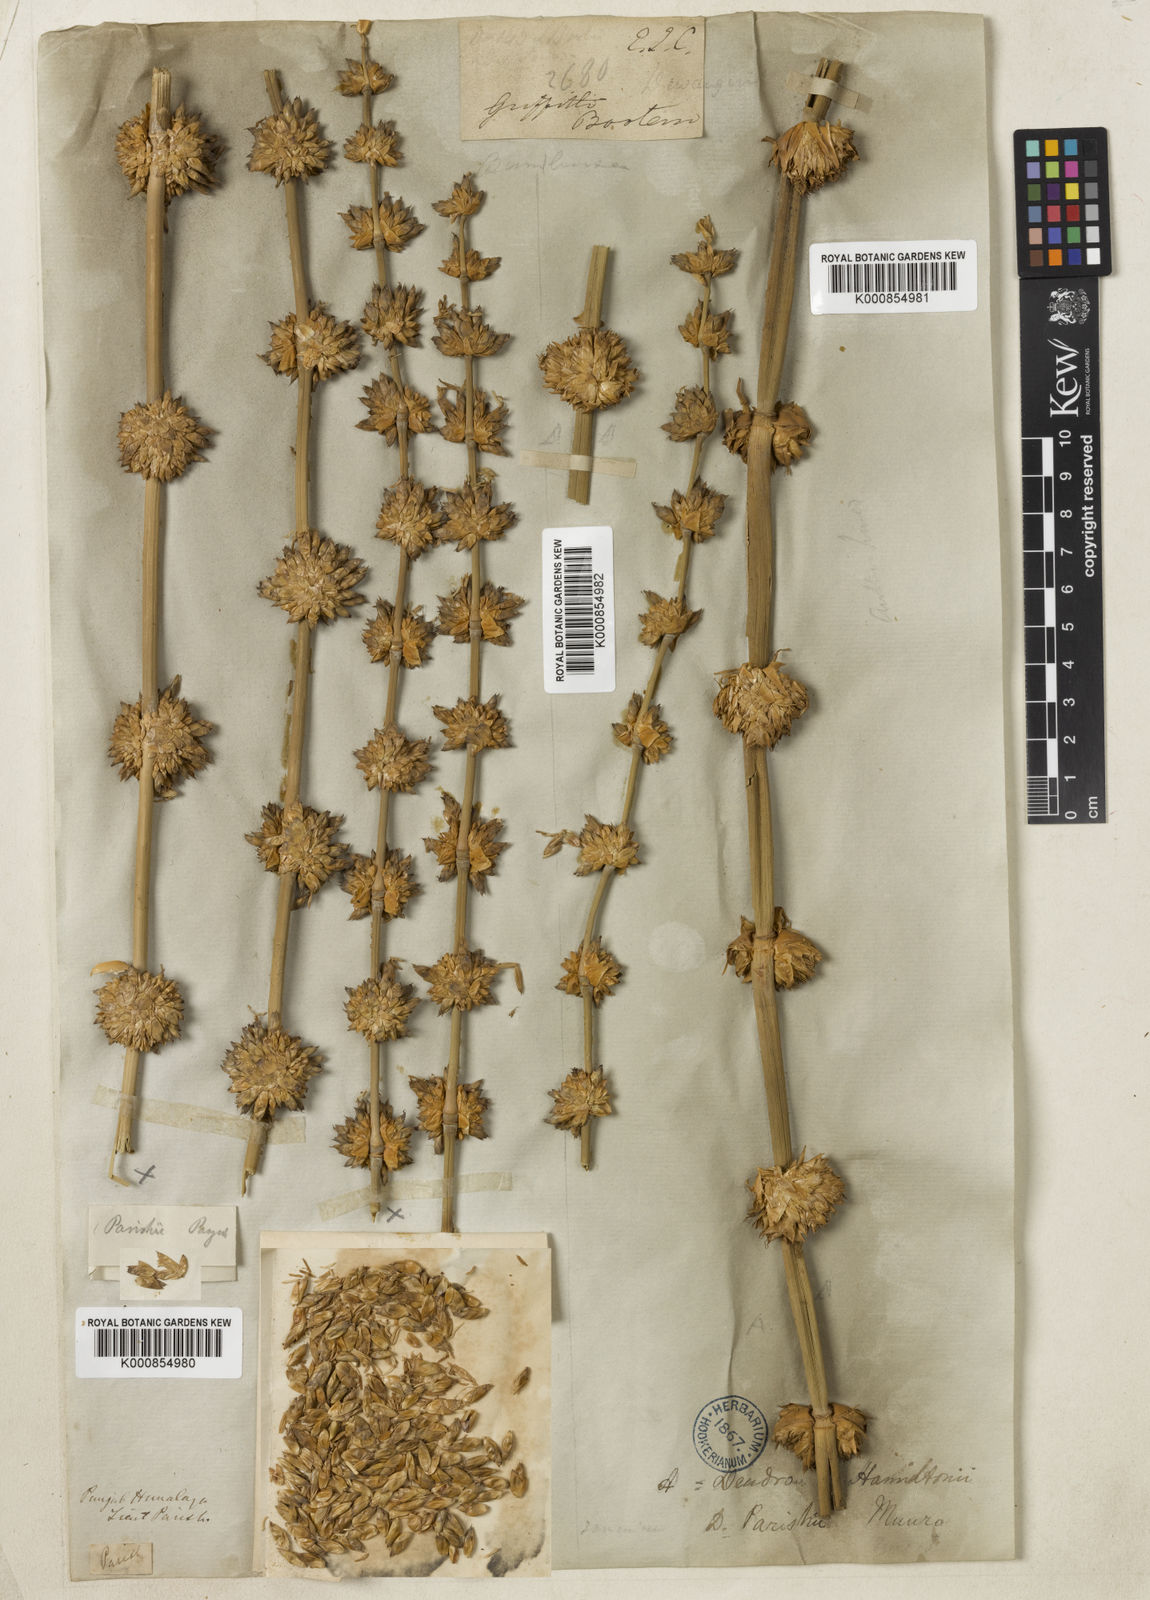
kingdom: Plantae
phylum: Tracheophyta
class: Liliopsida
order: Poales
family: Poaceae
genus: Dendrocalamus
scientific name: Dendrocalamus parishii
